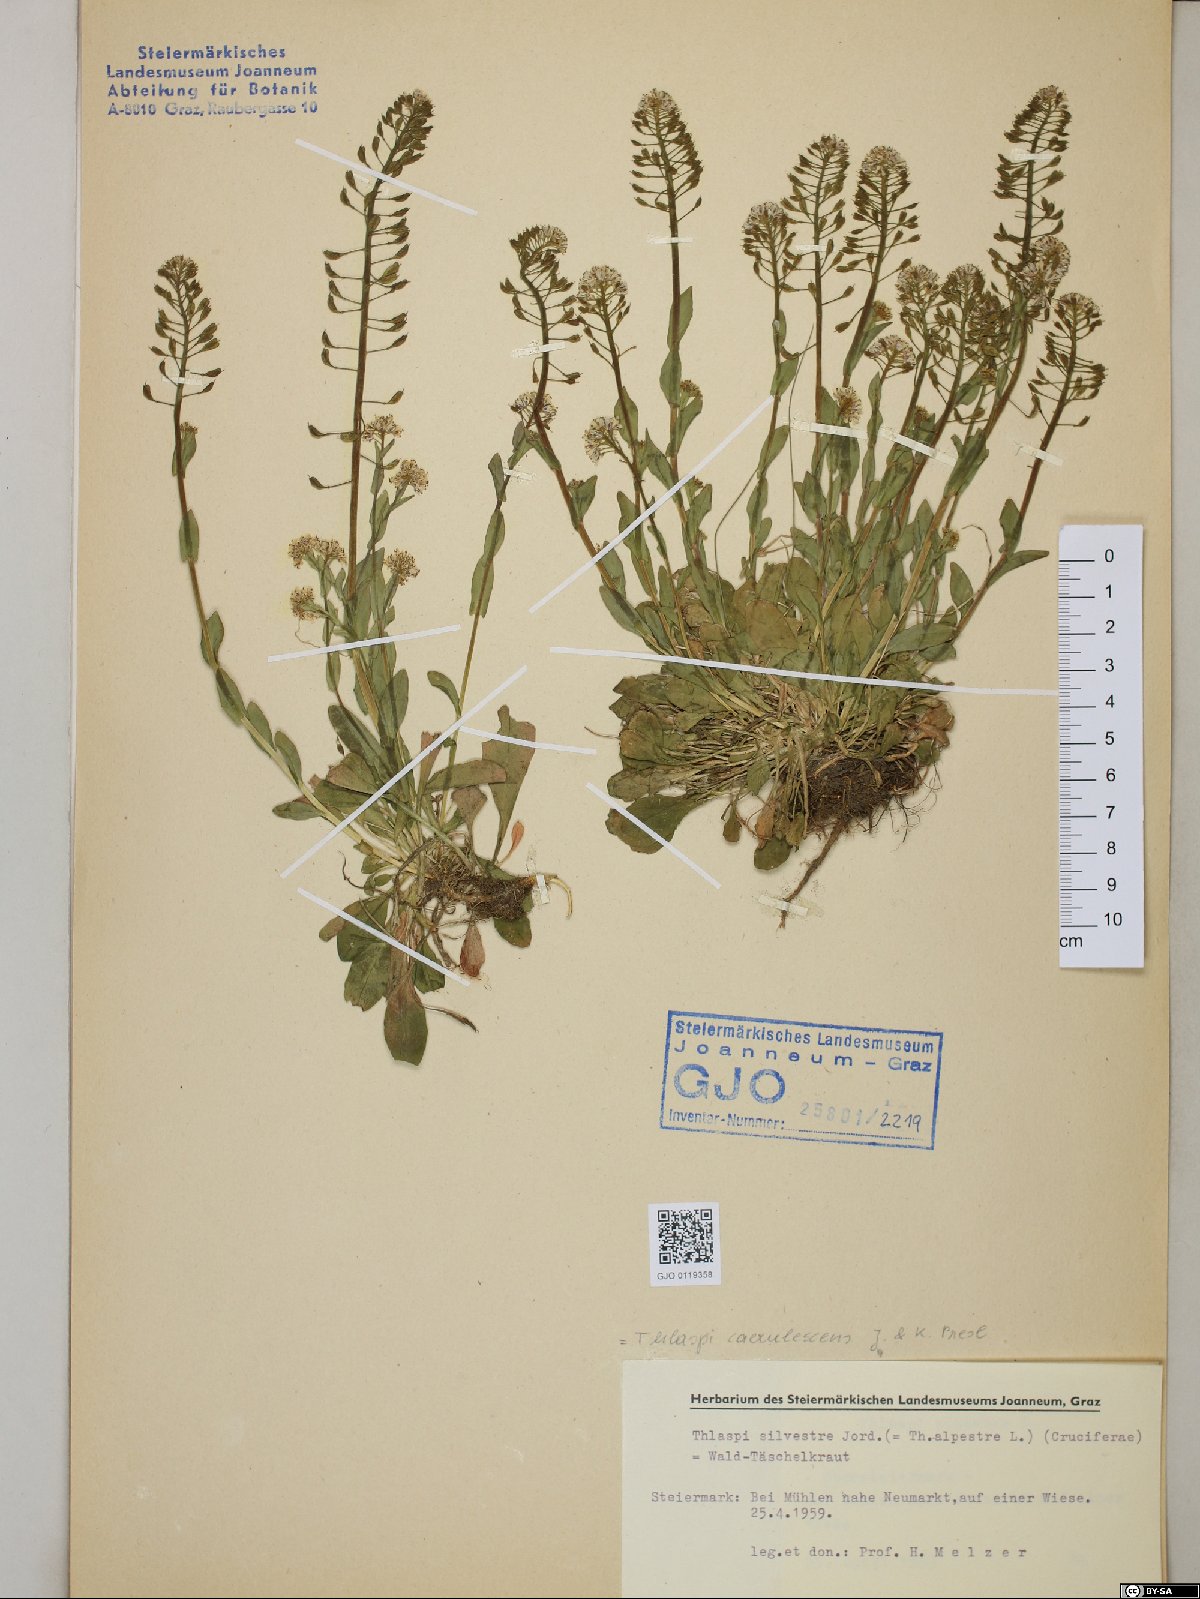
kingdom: Plantae
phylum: Tracheophyta
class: Magnoliopsida
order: Brassicales
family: Brassicaceae
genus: Noccaea
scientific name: Noccaea caerulescens
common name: Alpine pennycress
